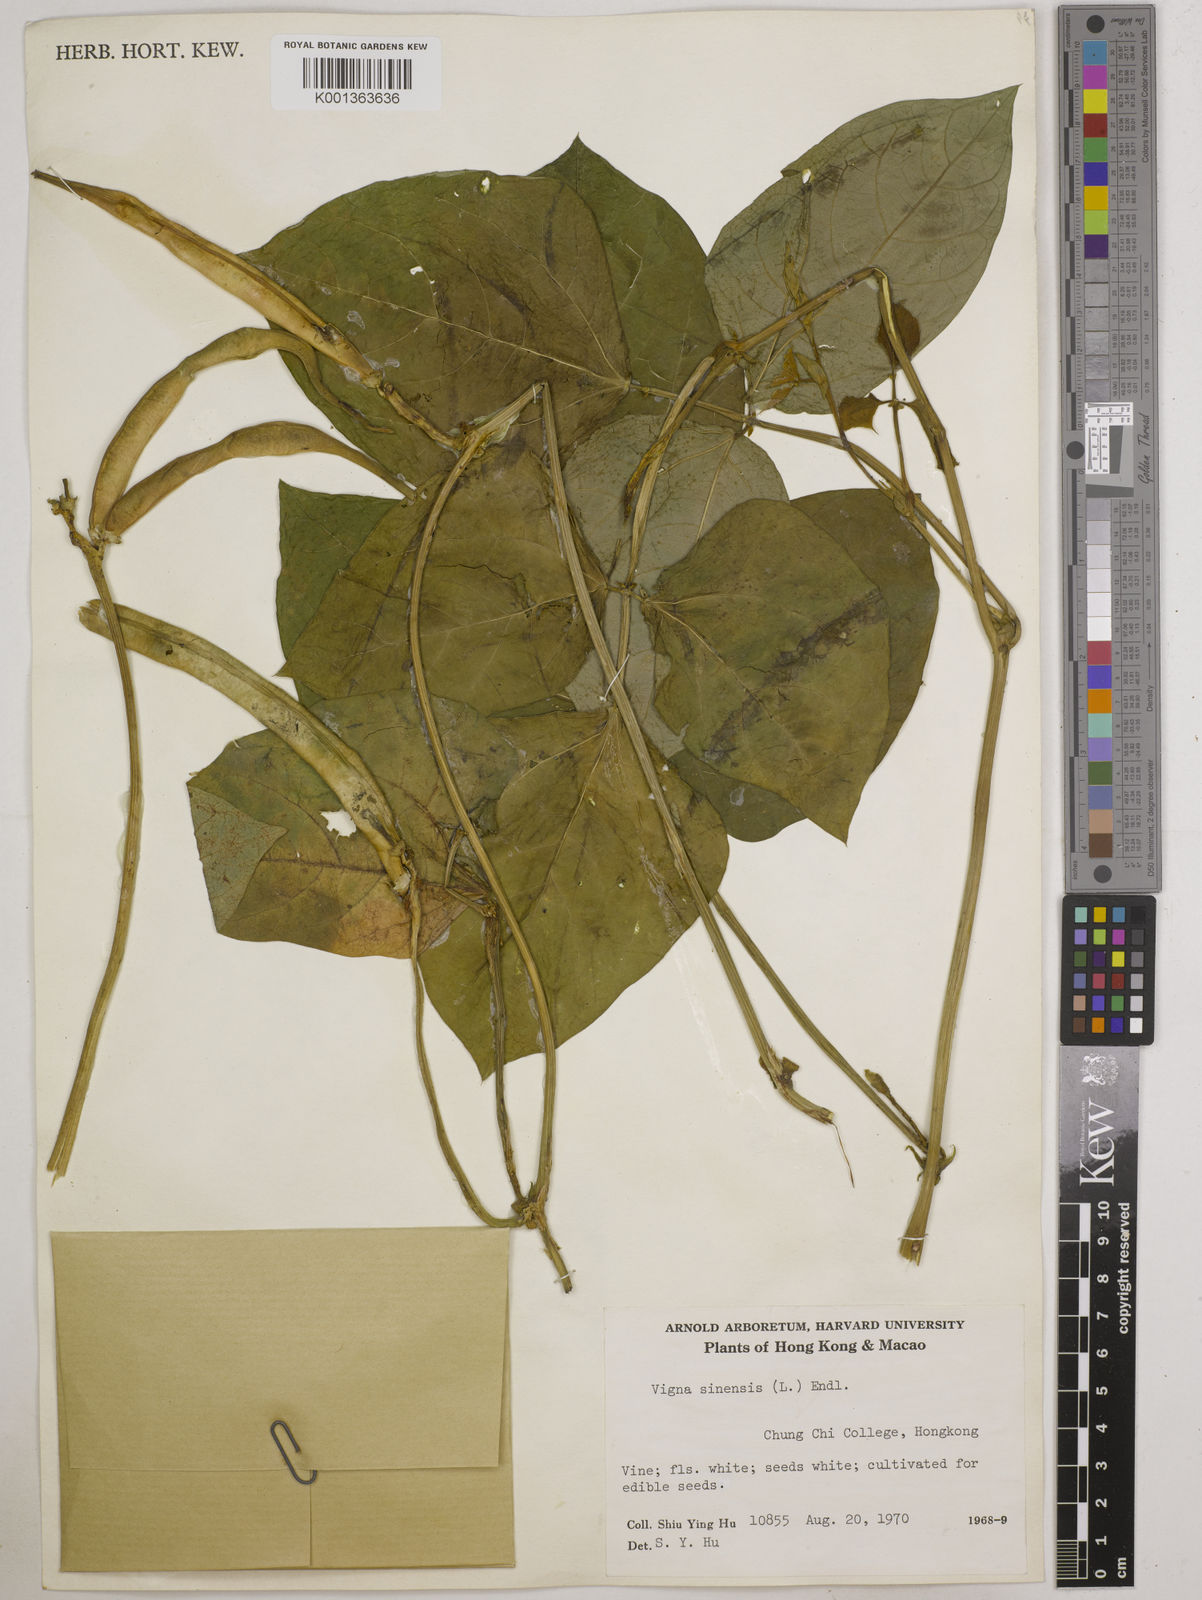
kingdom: Plantae
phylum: Tracheophyta
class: Magnoliopsida
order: Fabales
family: Fabaceae
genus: Vigna
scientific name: Vigna unguiculata
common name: Cowpea
